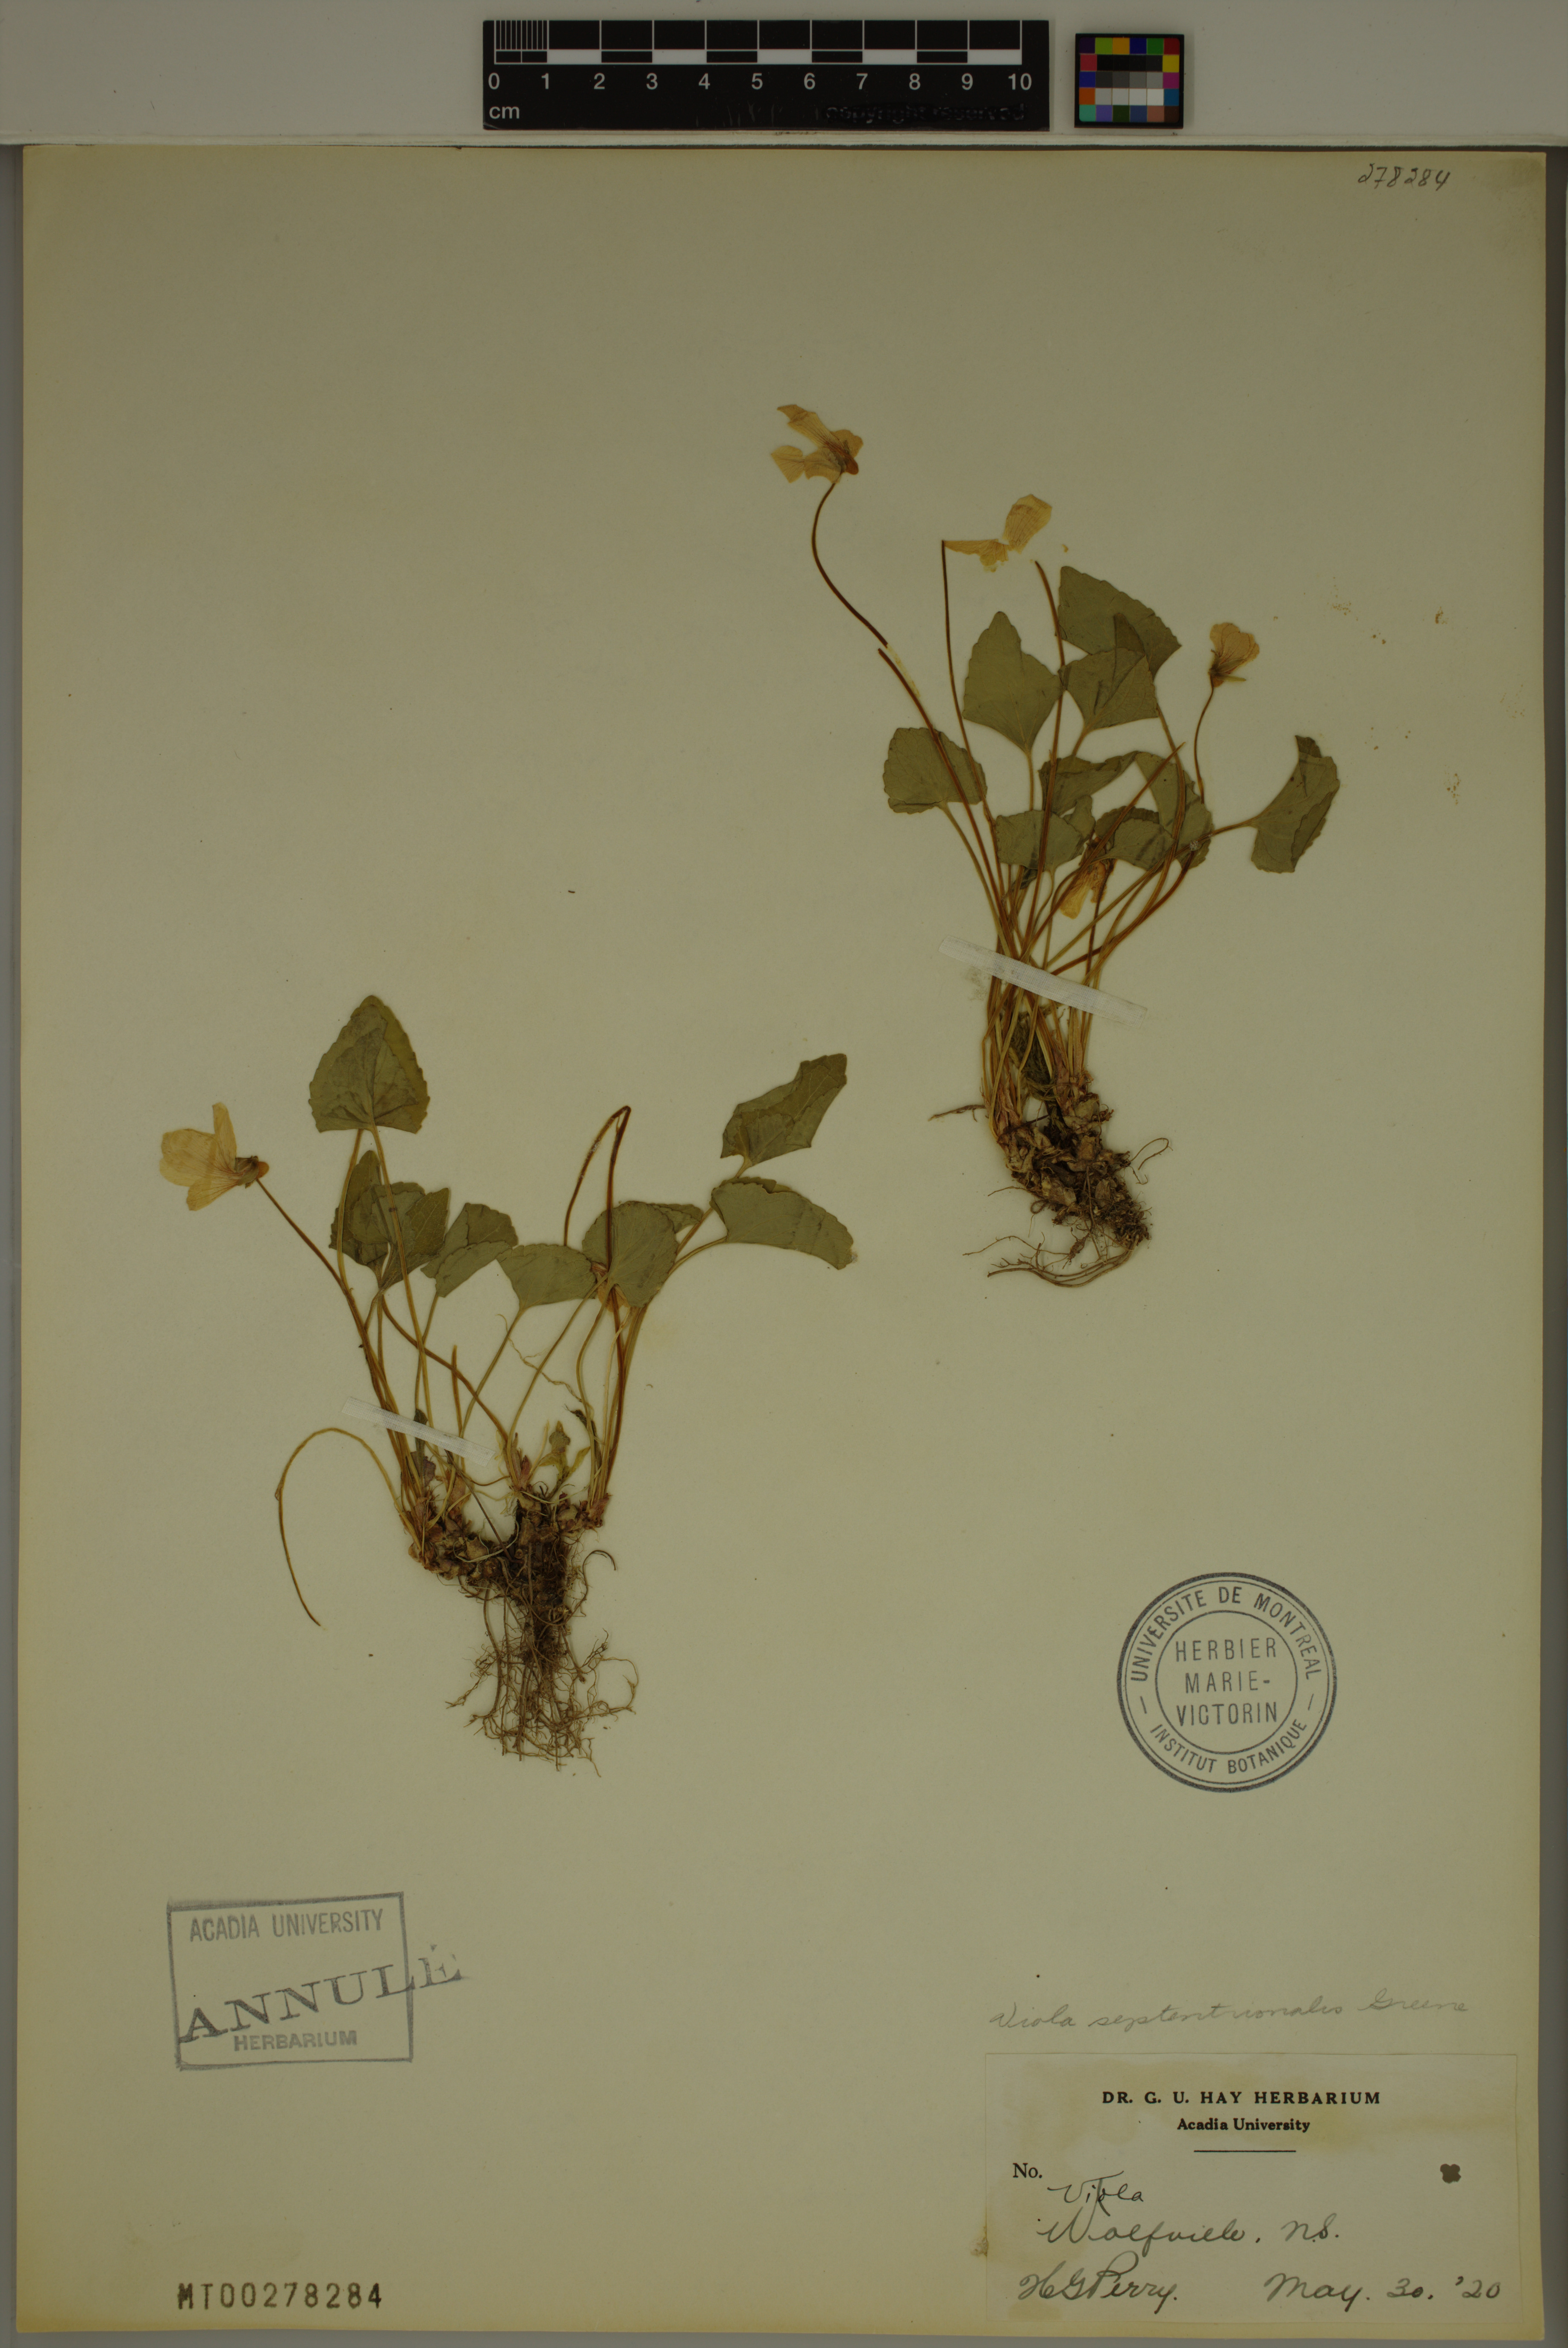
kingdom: Plantae
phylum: Tracheophyta
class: Magnoliopsida
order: Malpighiales
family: Violaceae
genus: Viola
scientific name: Viola septentrionalis
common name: Northern woodland violet
